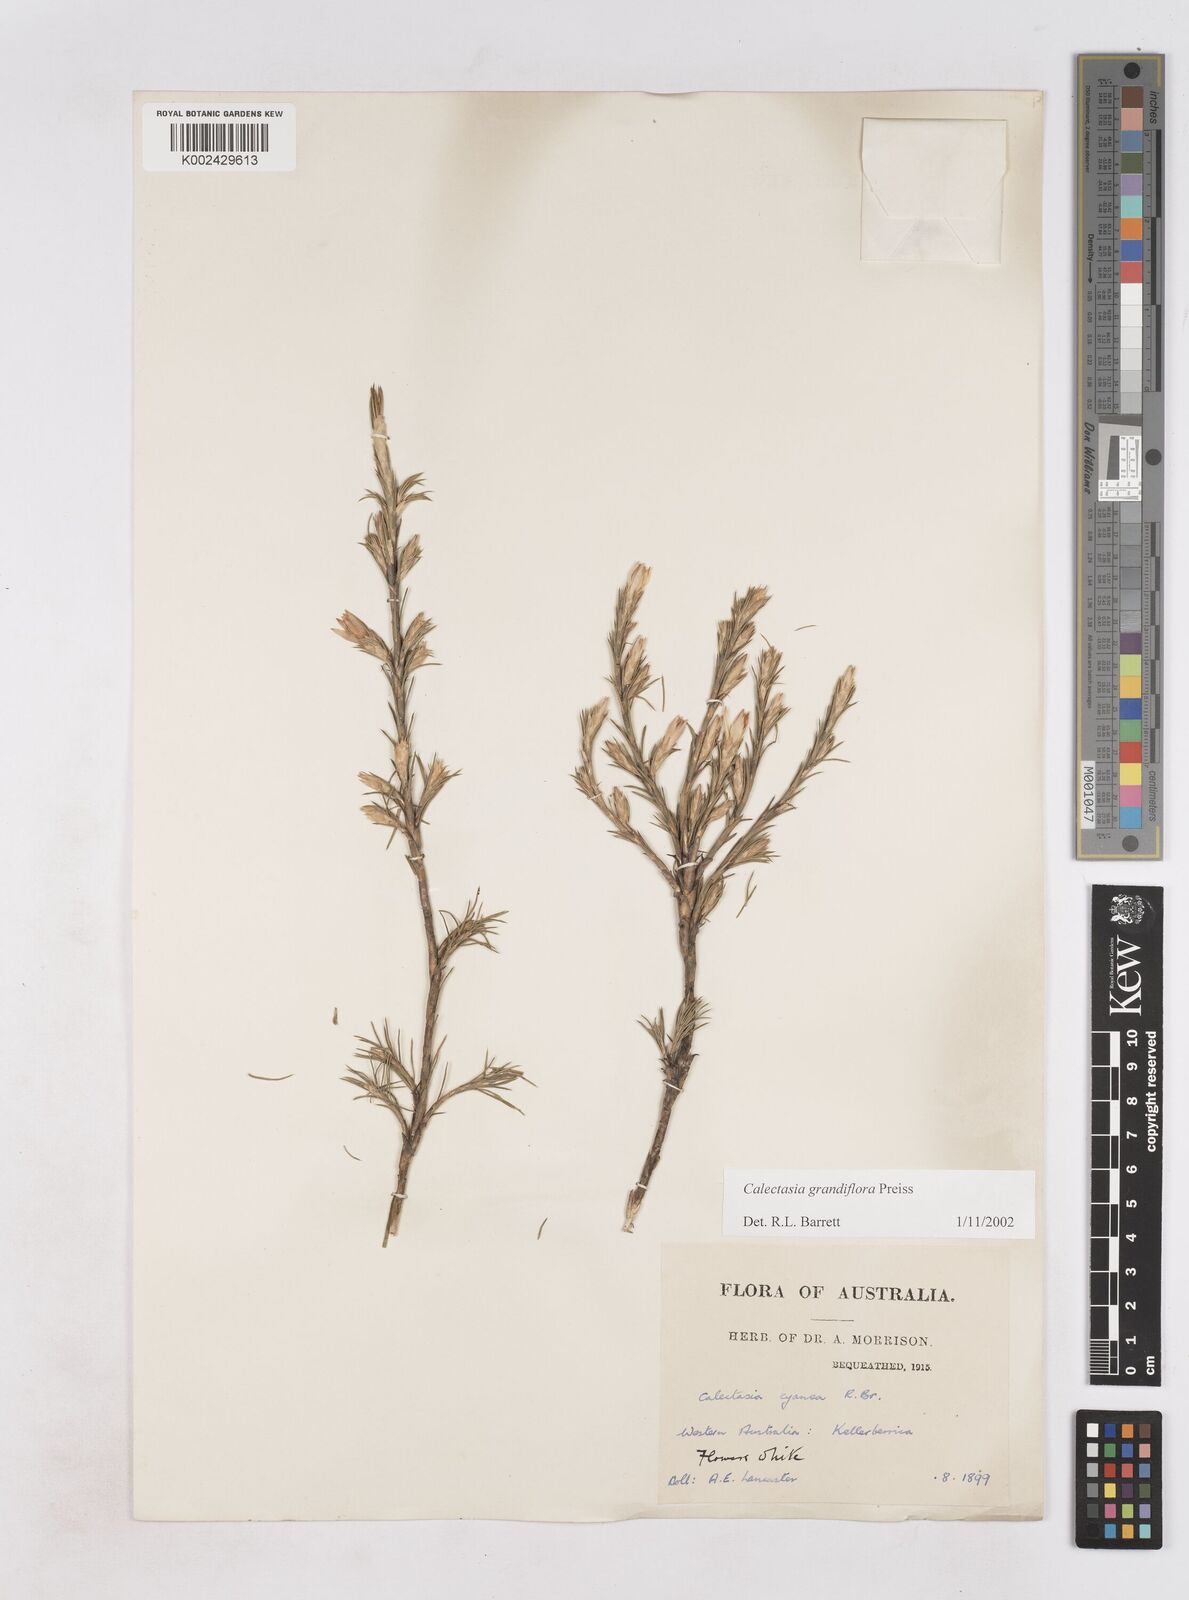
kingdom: Plantae
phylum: Tracheophyta
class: Liliopsida
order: Arecales
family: Dasypogonaceae
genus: Calectasia
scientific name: Calectasia grandiflora
